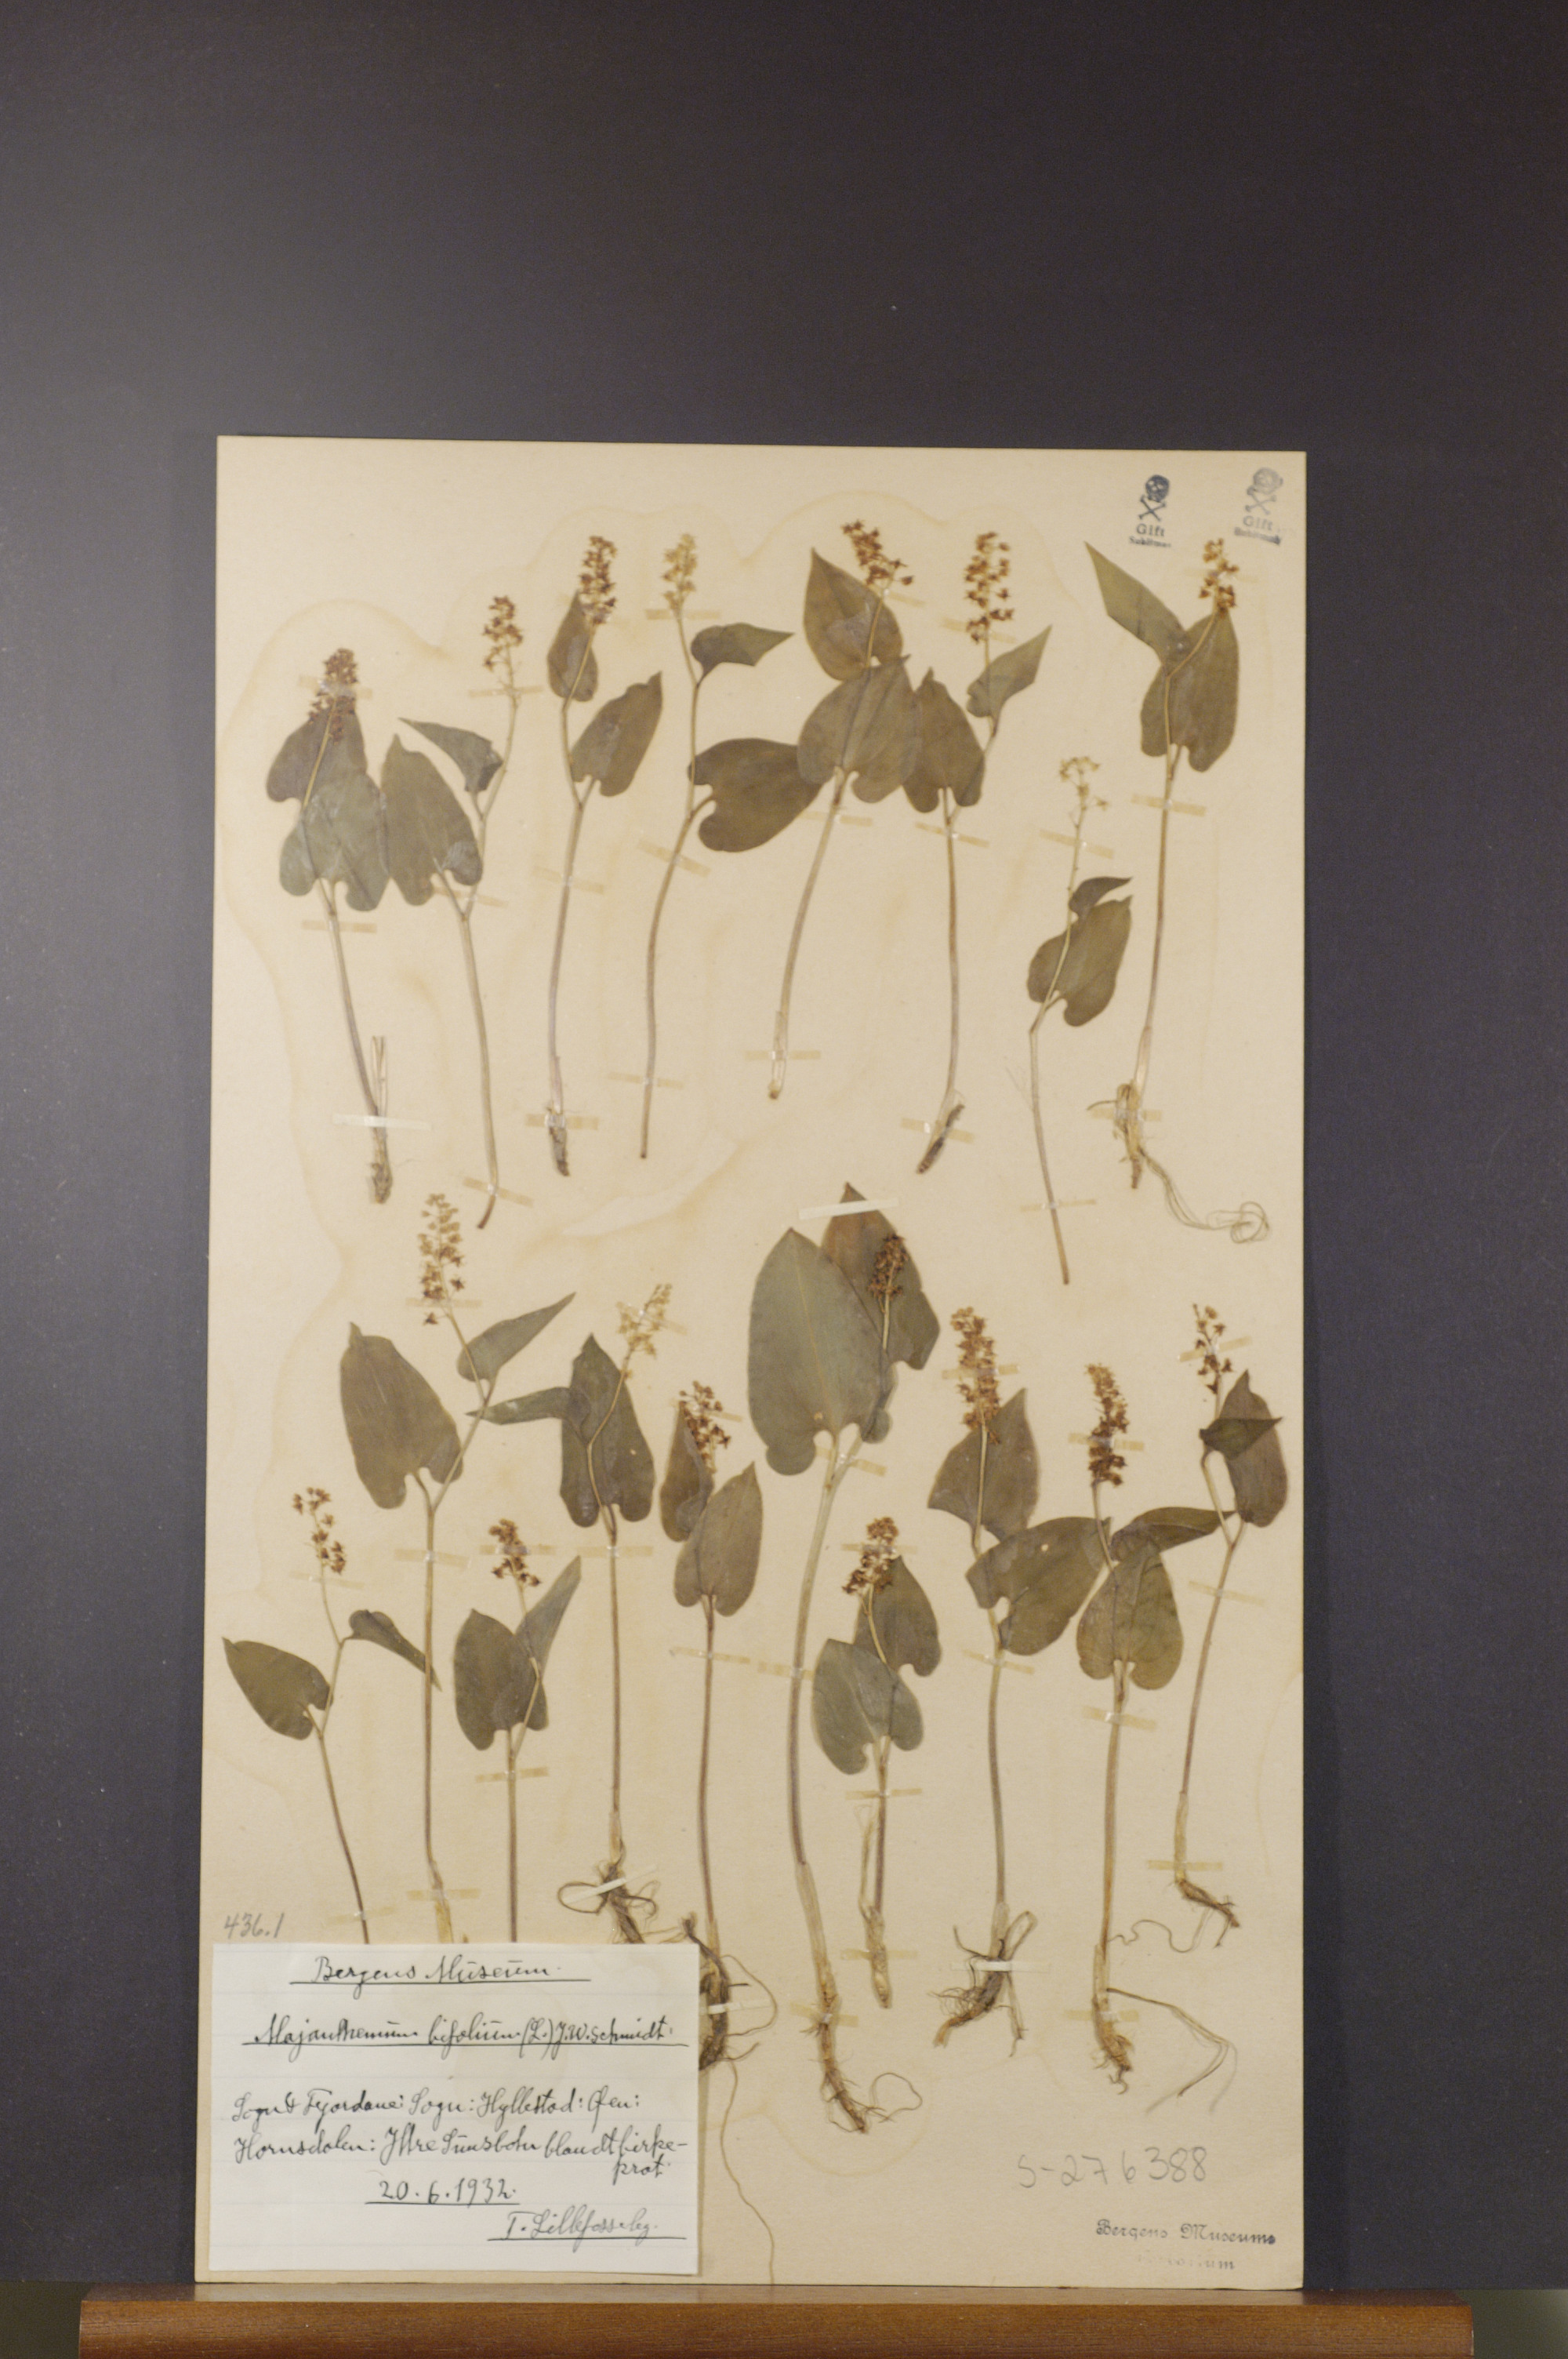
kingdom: Plantae
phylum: Tracheophyta
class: Liliopsida
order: Asparagales
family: Asparagaceae
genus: Maianthemum
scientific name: Maianthemum bifolium
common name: May lily
